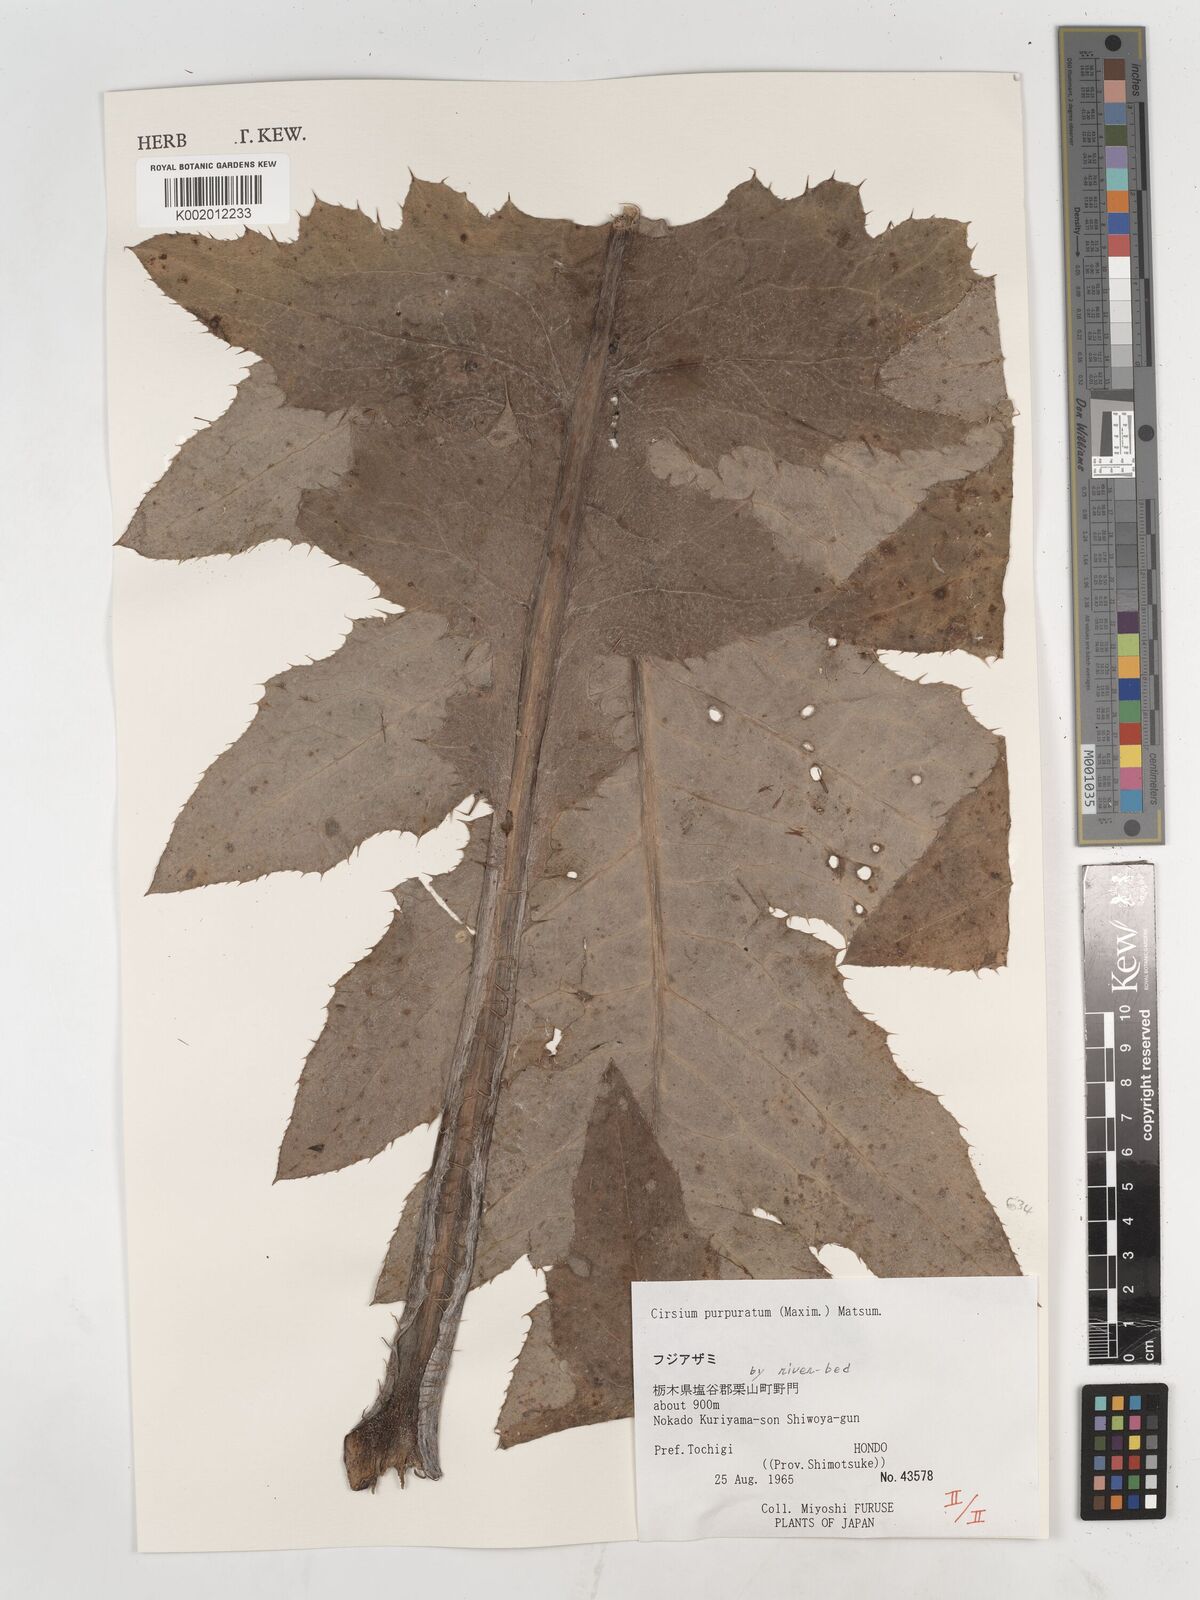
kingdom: Plantae
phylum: Tracheophyta
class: Magnoliopsida
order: Asterales
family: Asteraceae
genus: Cirsium
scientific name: Cirsium purpuratum
